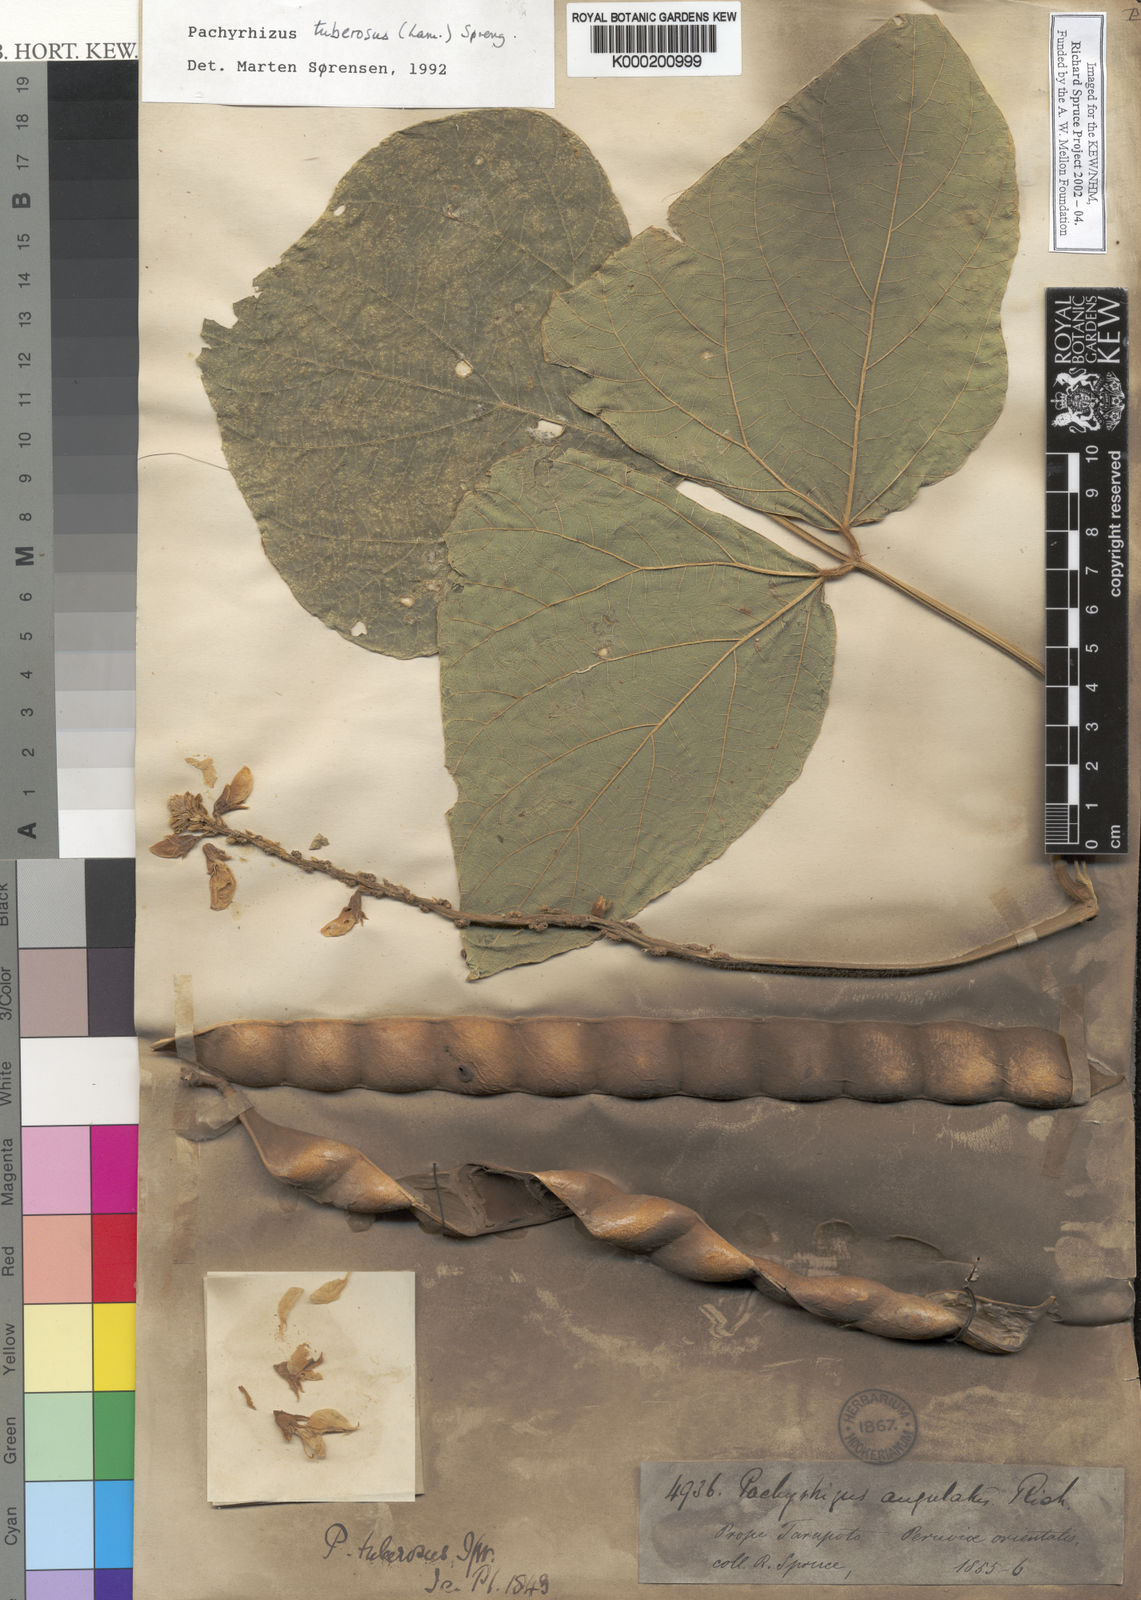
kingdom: Plantae
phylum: Tracheophyta
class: Magnoliopsida
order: Fabales
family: Fabaceae
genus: Pachyrhizus
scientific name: Pachyrhizus tuberosus
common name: Yam-bean
